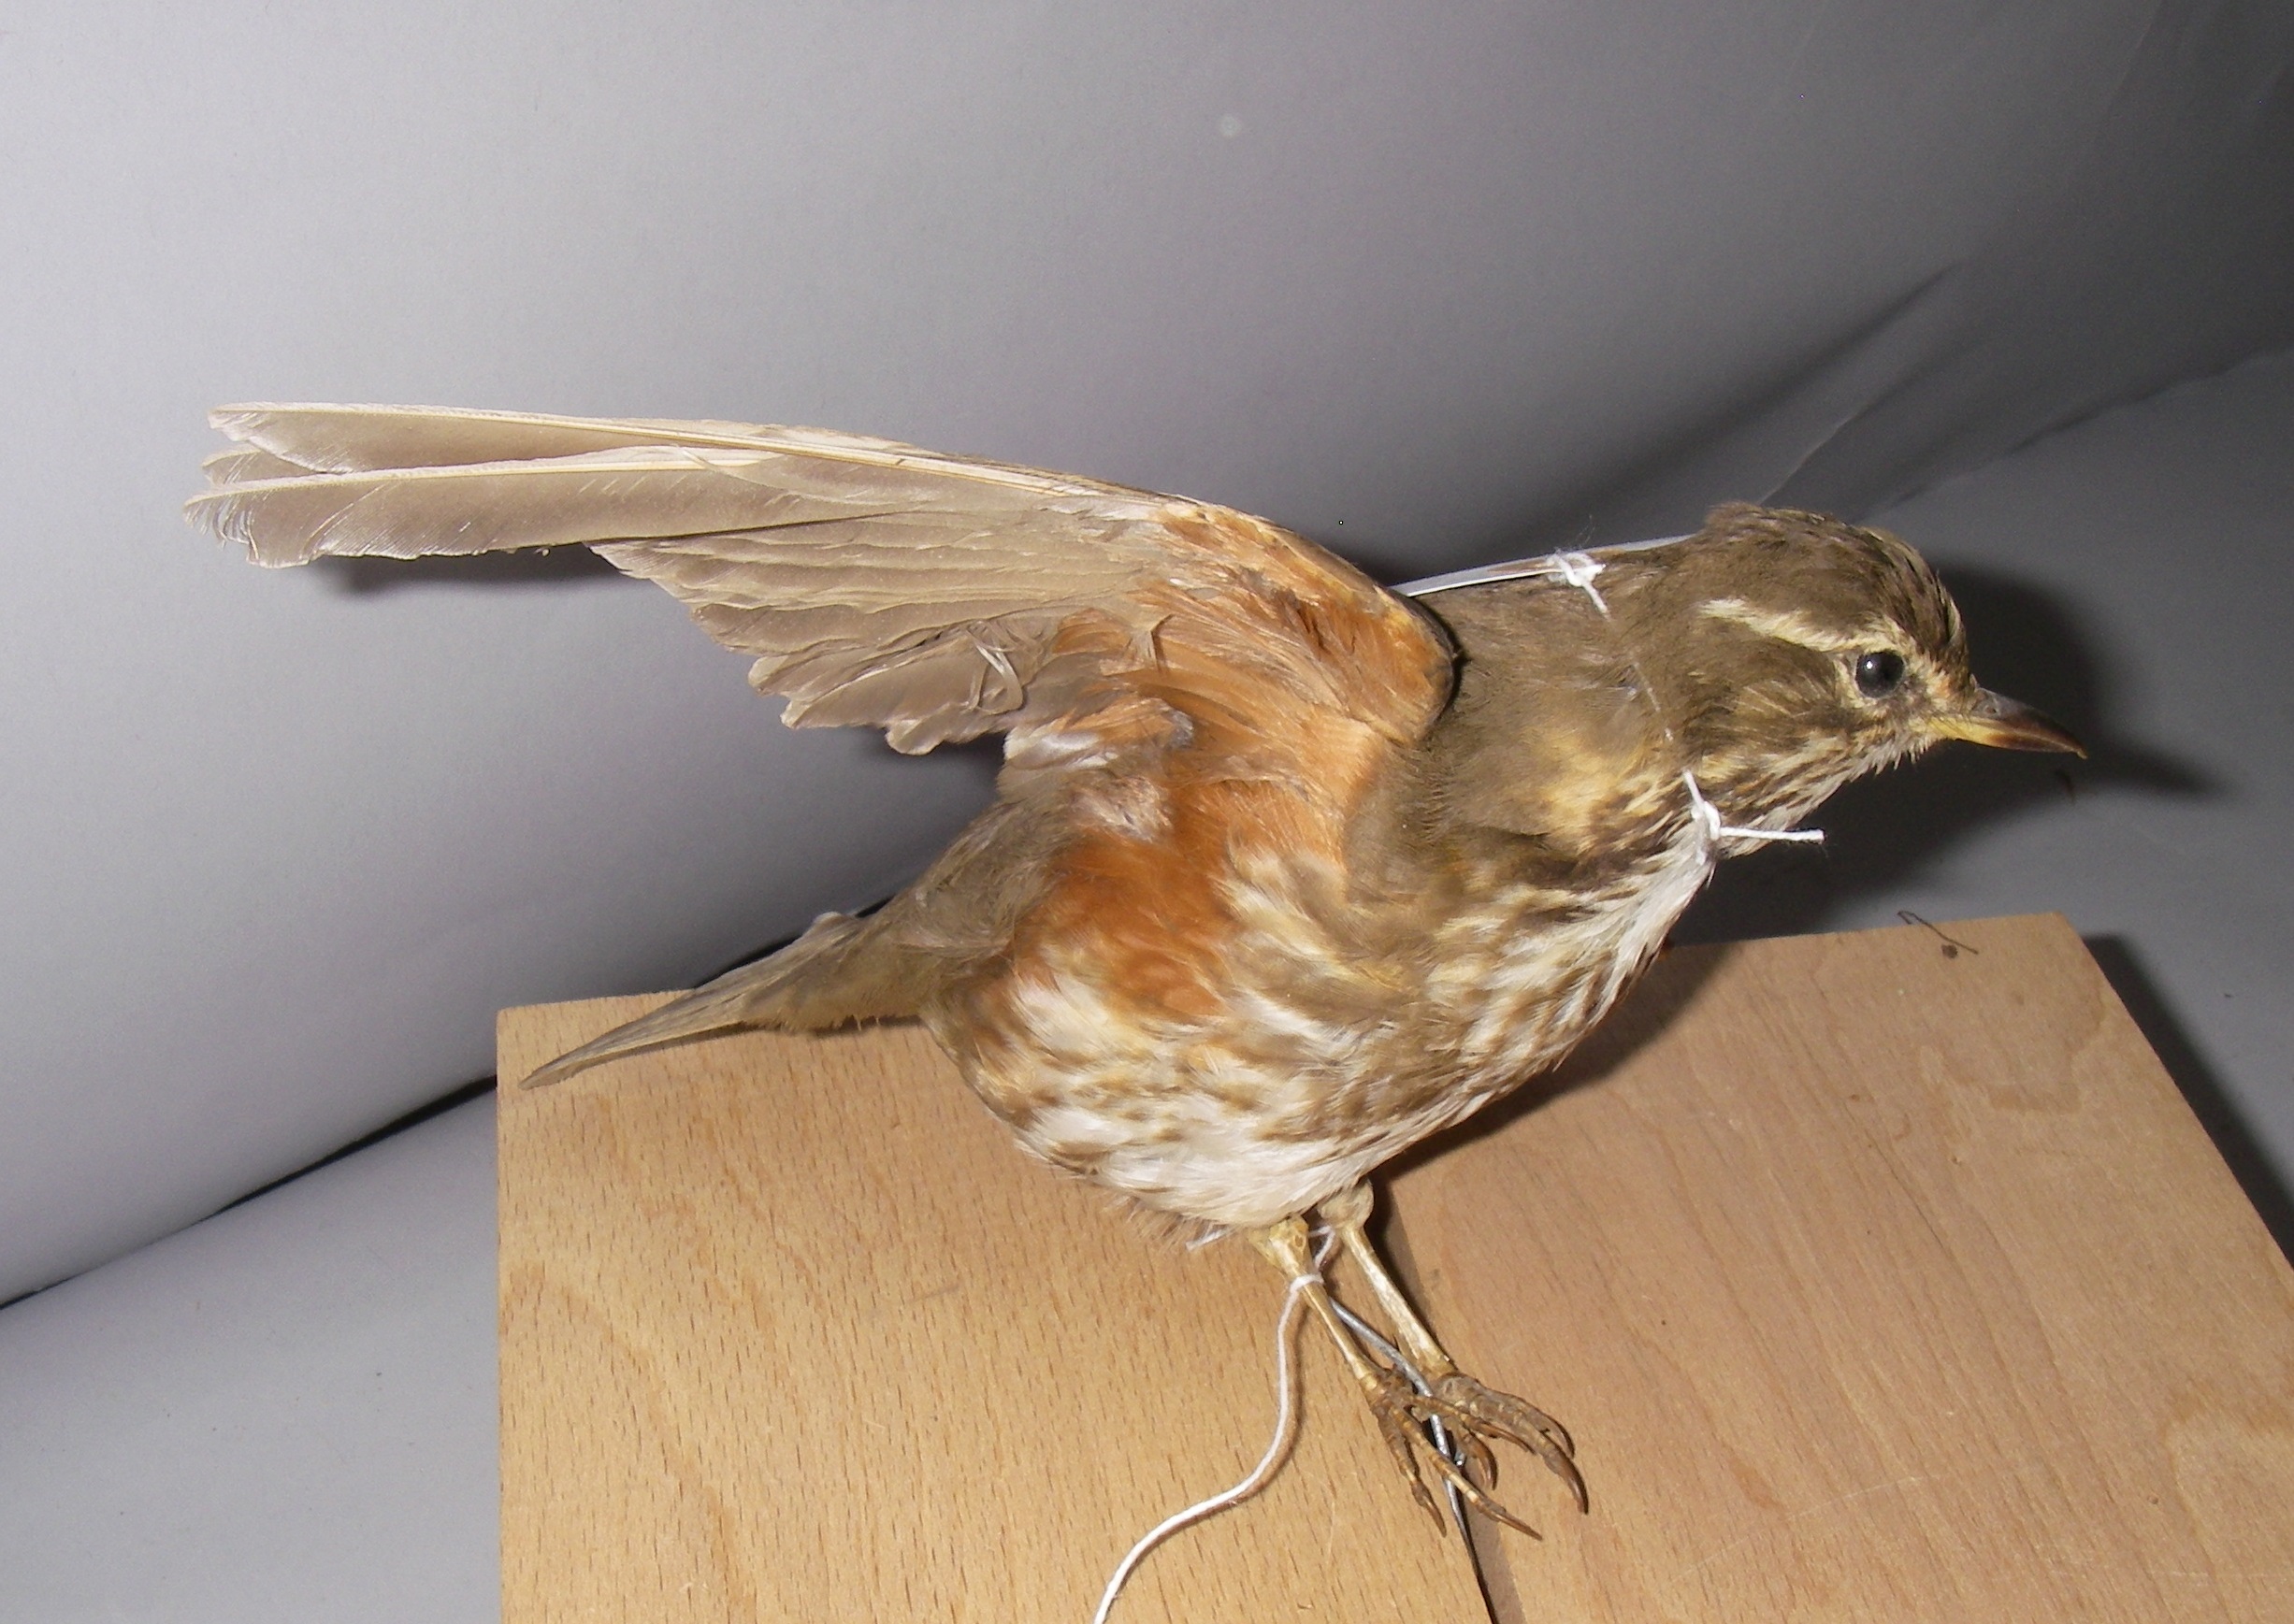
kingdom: Animalia
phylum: Chordata
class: Aves
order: Passeriformes
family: Turdidae
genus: Turdus
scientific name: Turdus iliacus
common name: Redwing
